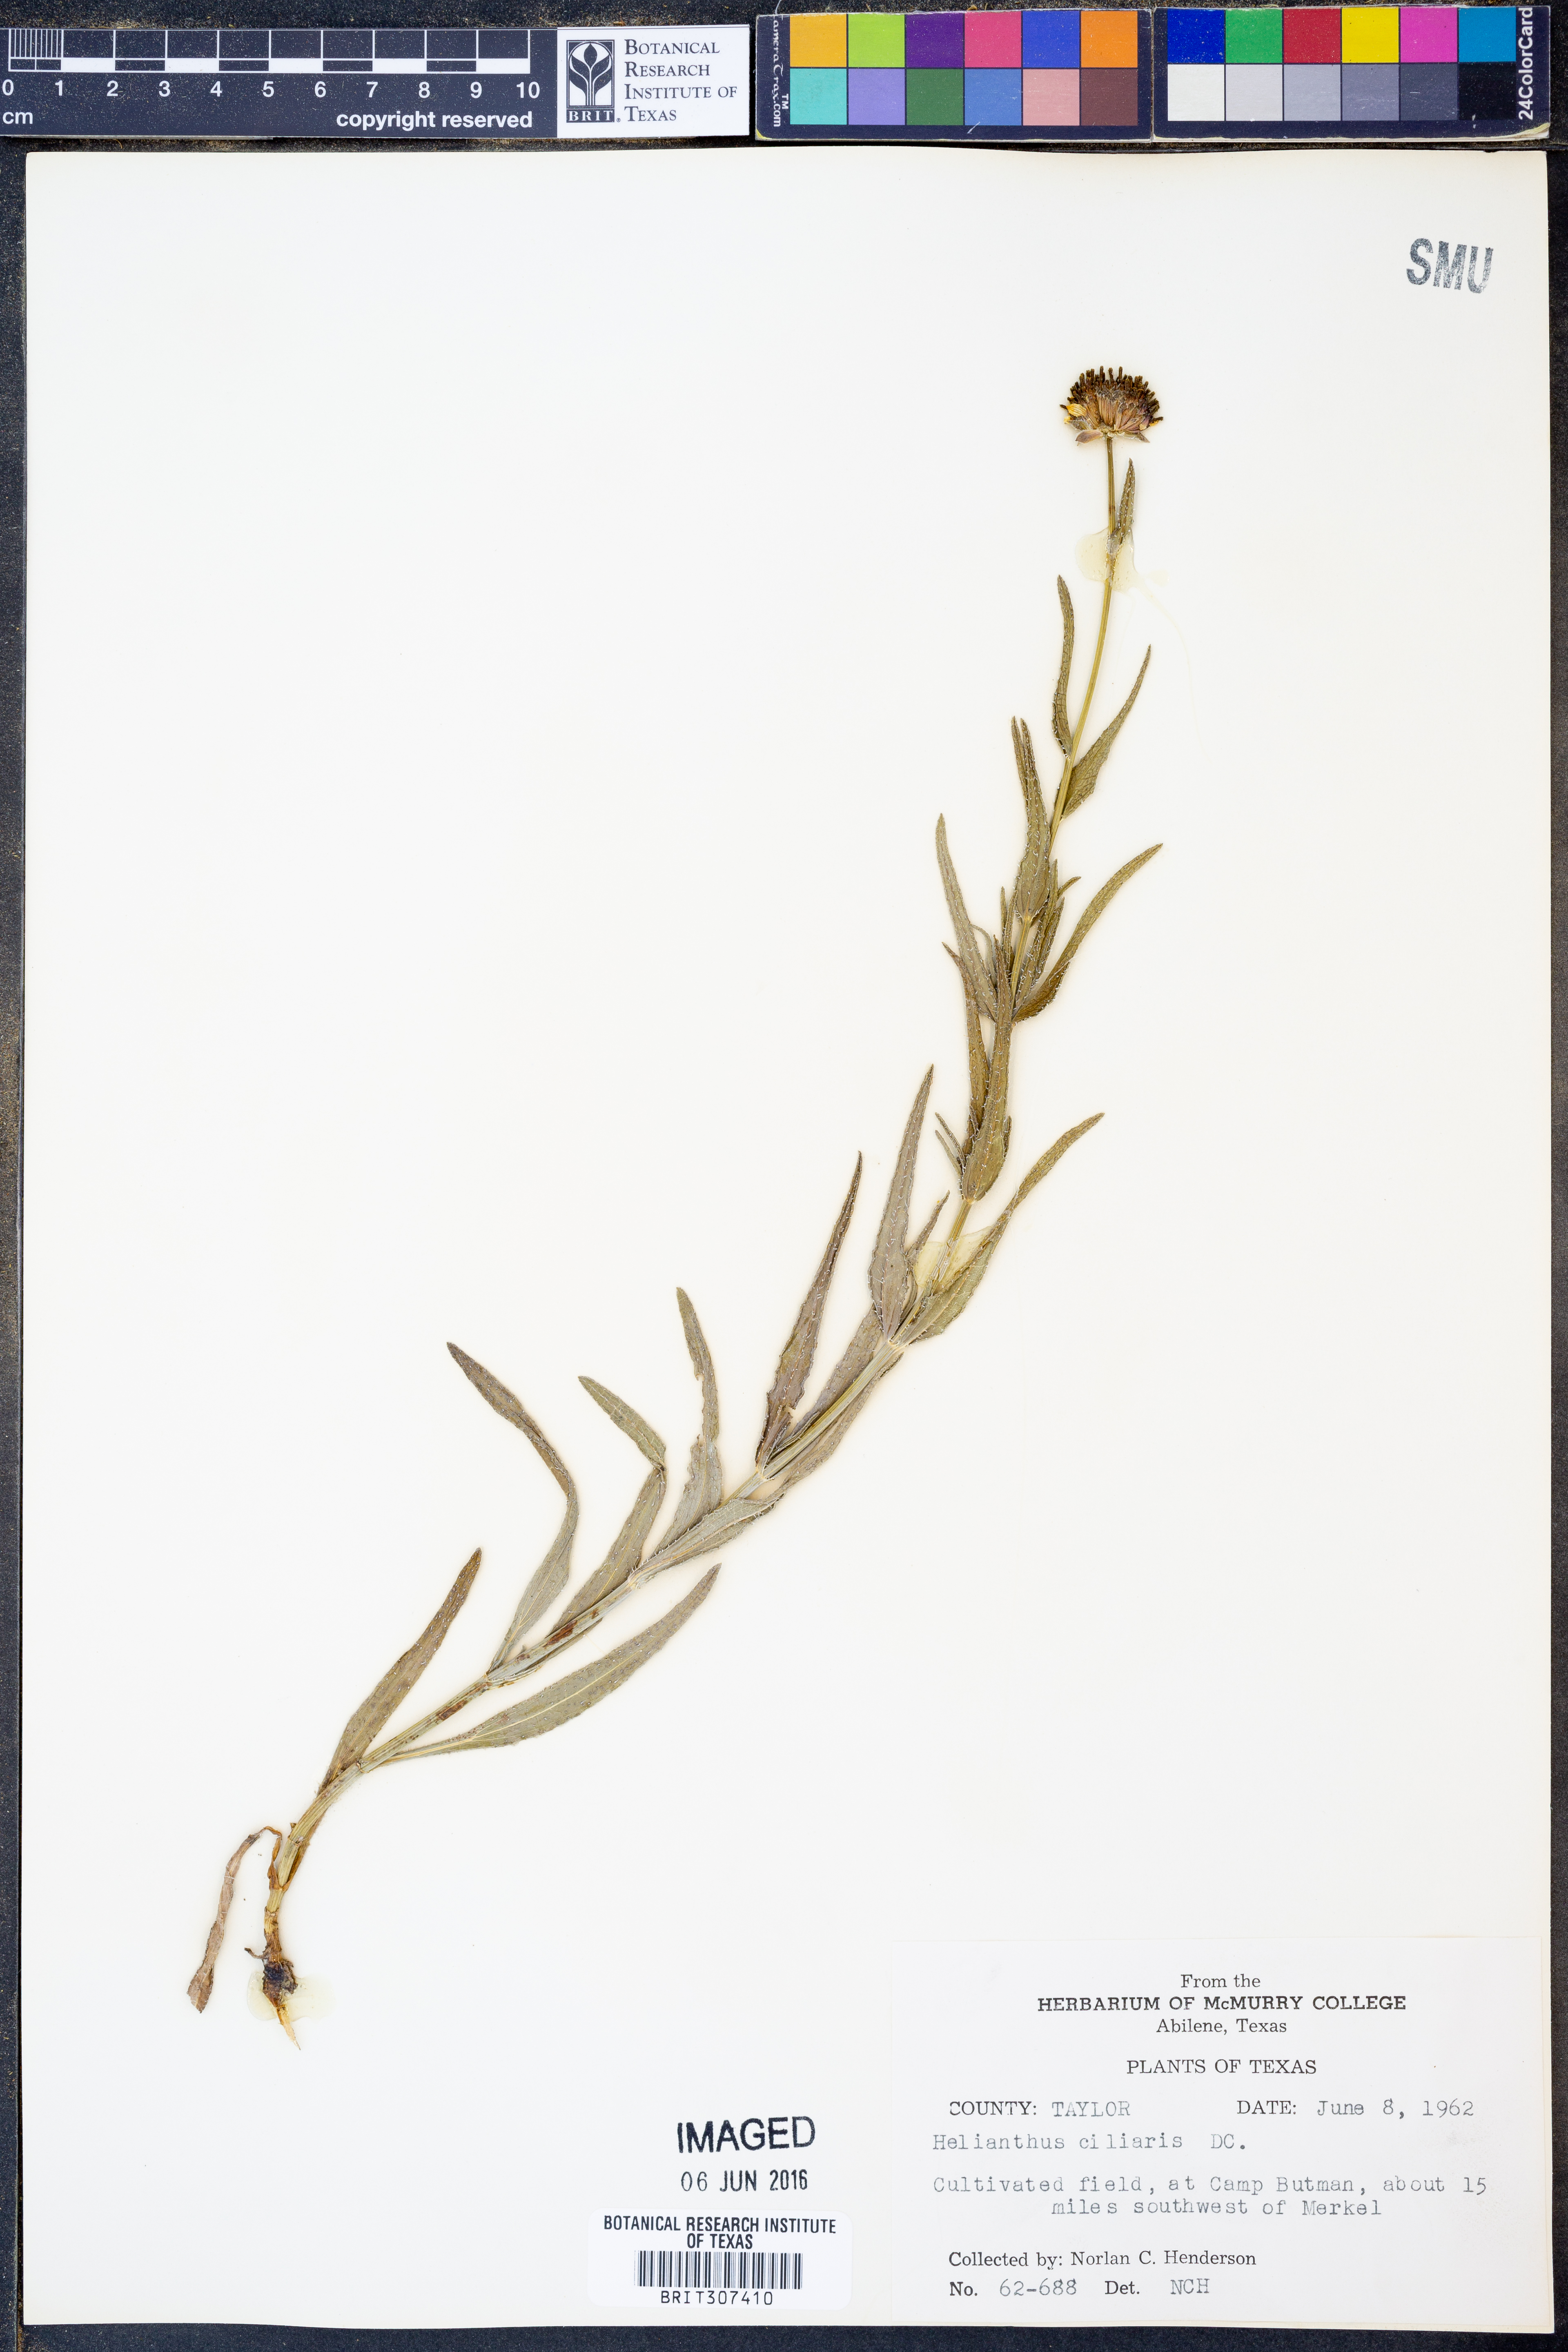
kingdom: Plantae
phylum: Tracheophyta
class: Magnoliopsida
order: Asterales
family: Asteraceae
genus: Helianthus
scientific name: Helianthus ciliaris
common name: Texas blueweed
